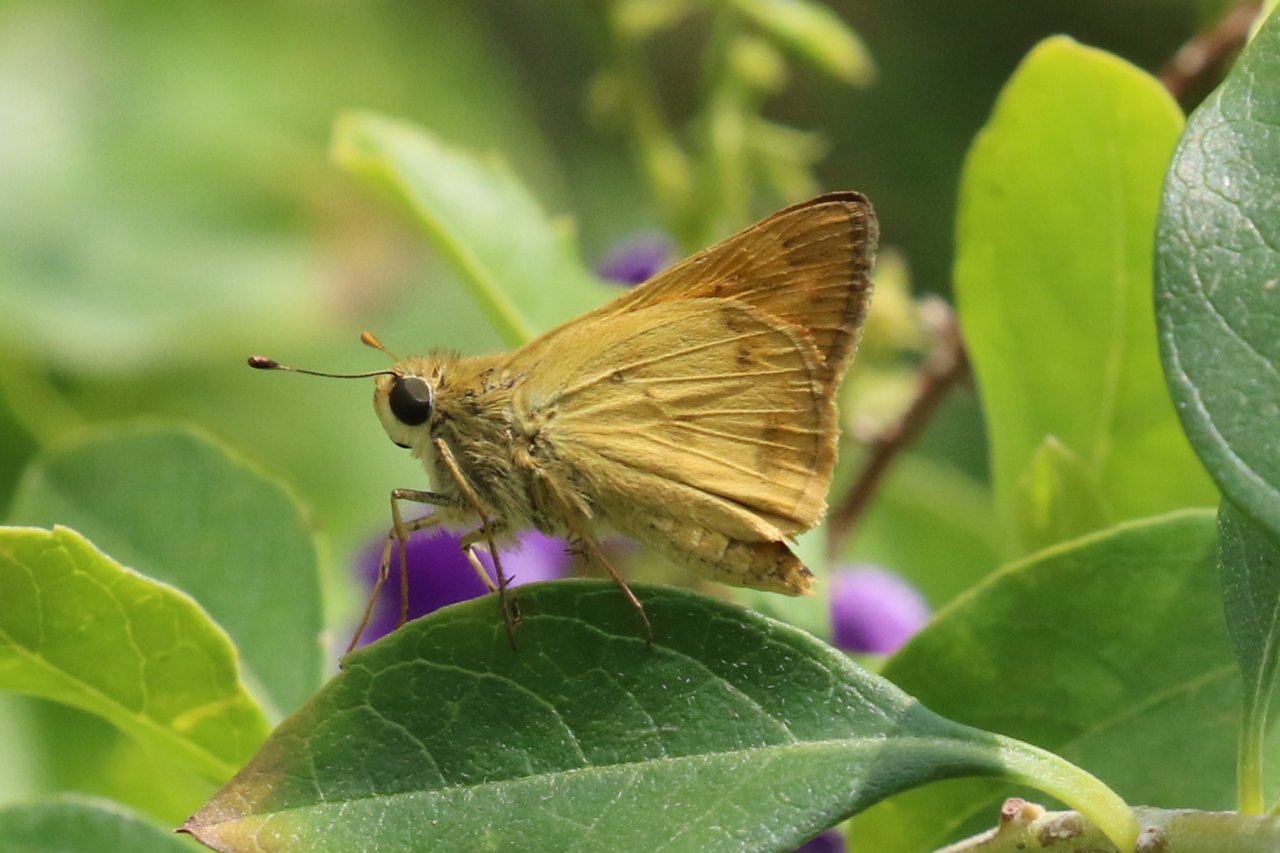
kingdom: Animalia
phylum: Arthropoda
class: Insecta
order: Lepidoptera
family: Hesperiidae
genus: Polites
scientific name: Polites vibex
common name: Whirlabout
